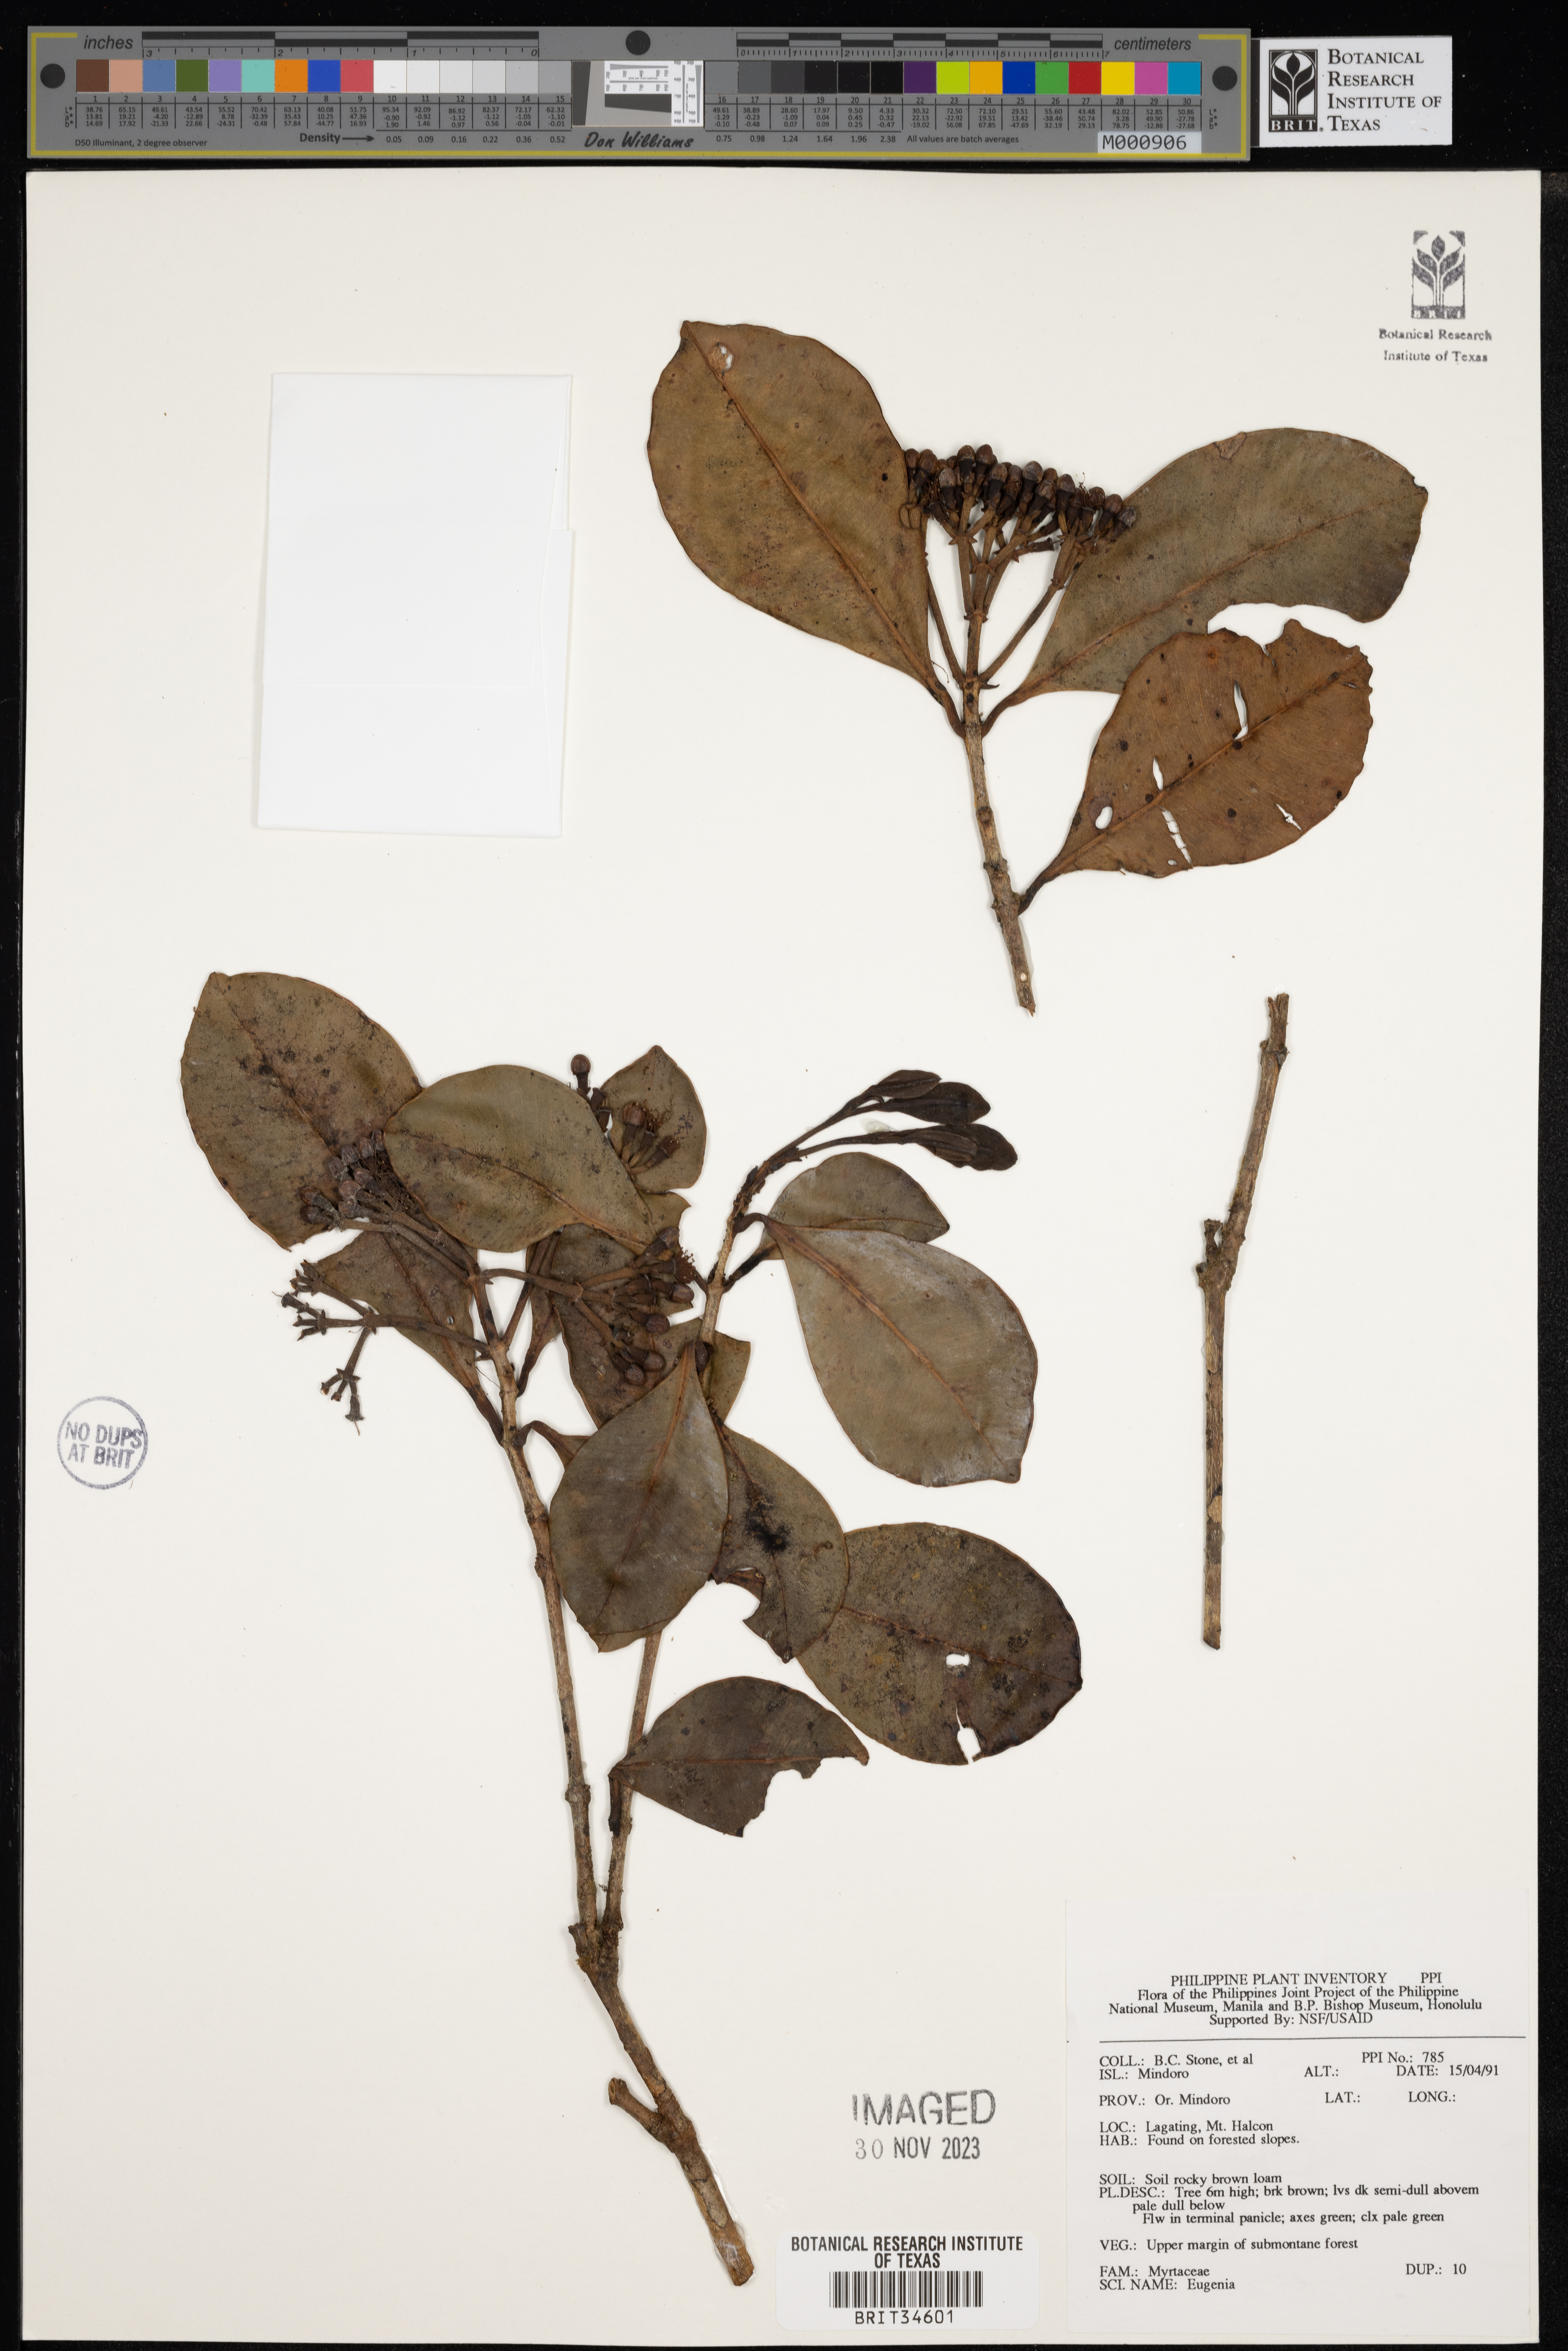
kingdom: Plantae
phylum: Tracheophyta
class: Magnoliopsida
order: Myrtales
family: Myrtaceae
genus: Eugenia
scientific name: Eugenia
